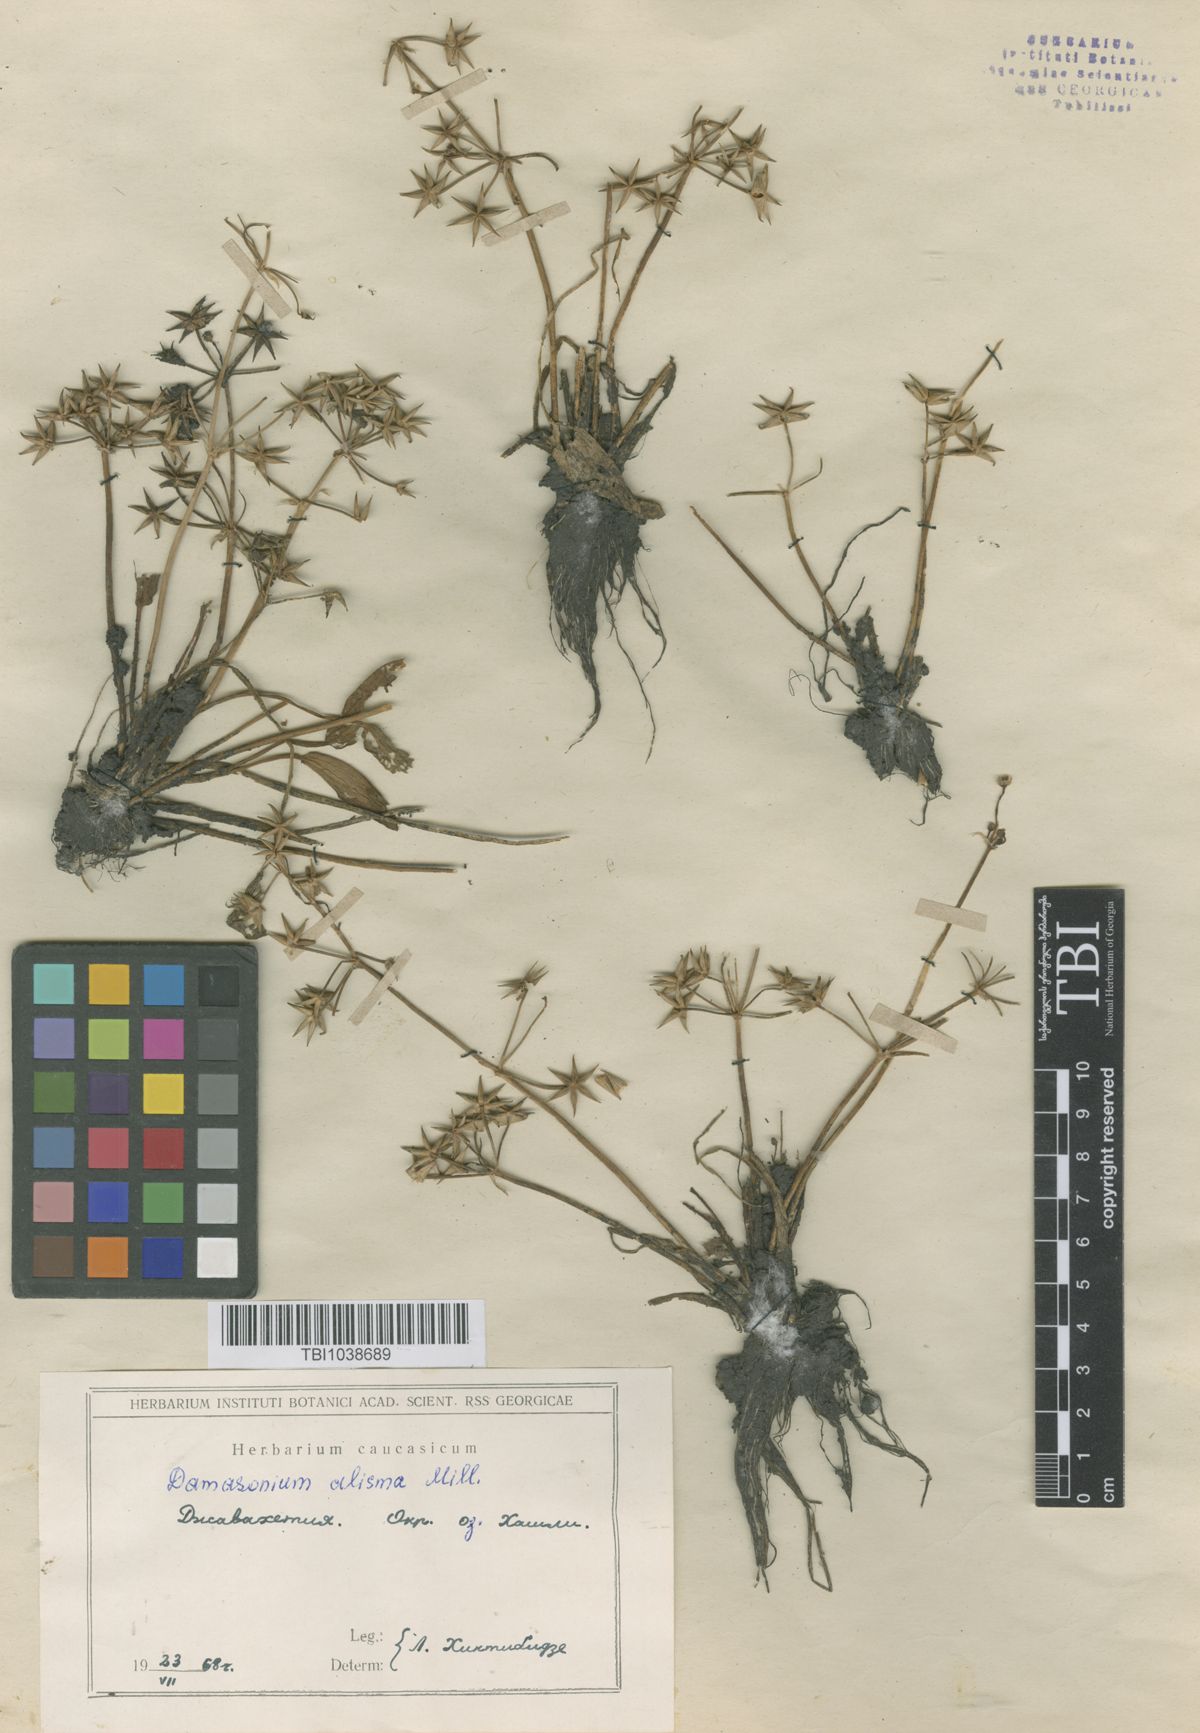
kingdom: Plantae
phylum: Tracheophyta
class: Liliopsida
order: Alismatales
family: Alismataceae
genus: Damasonium
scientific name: Damasonium alisma
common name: Starfruit
